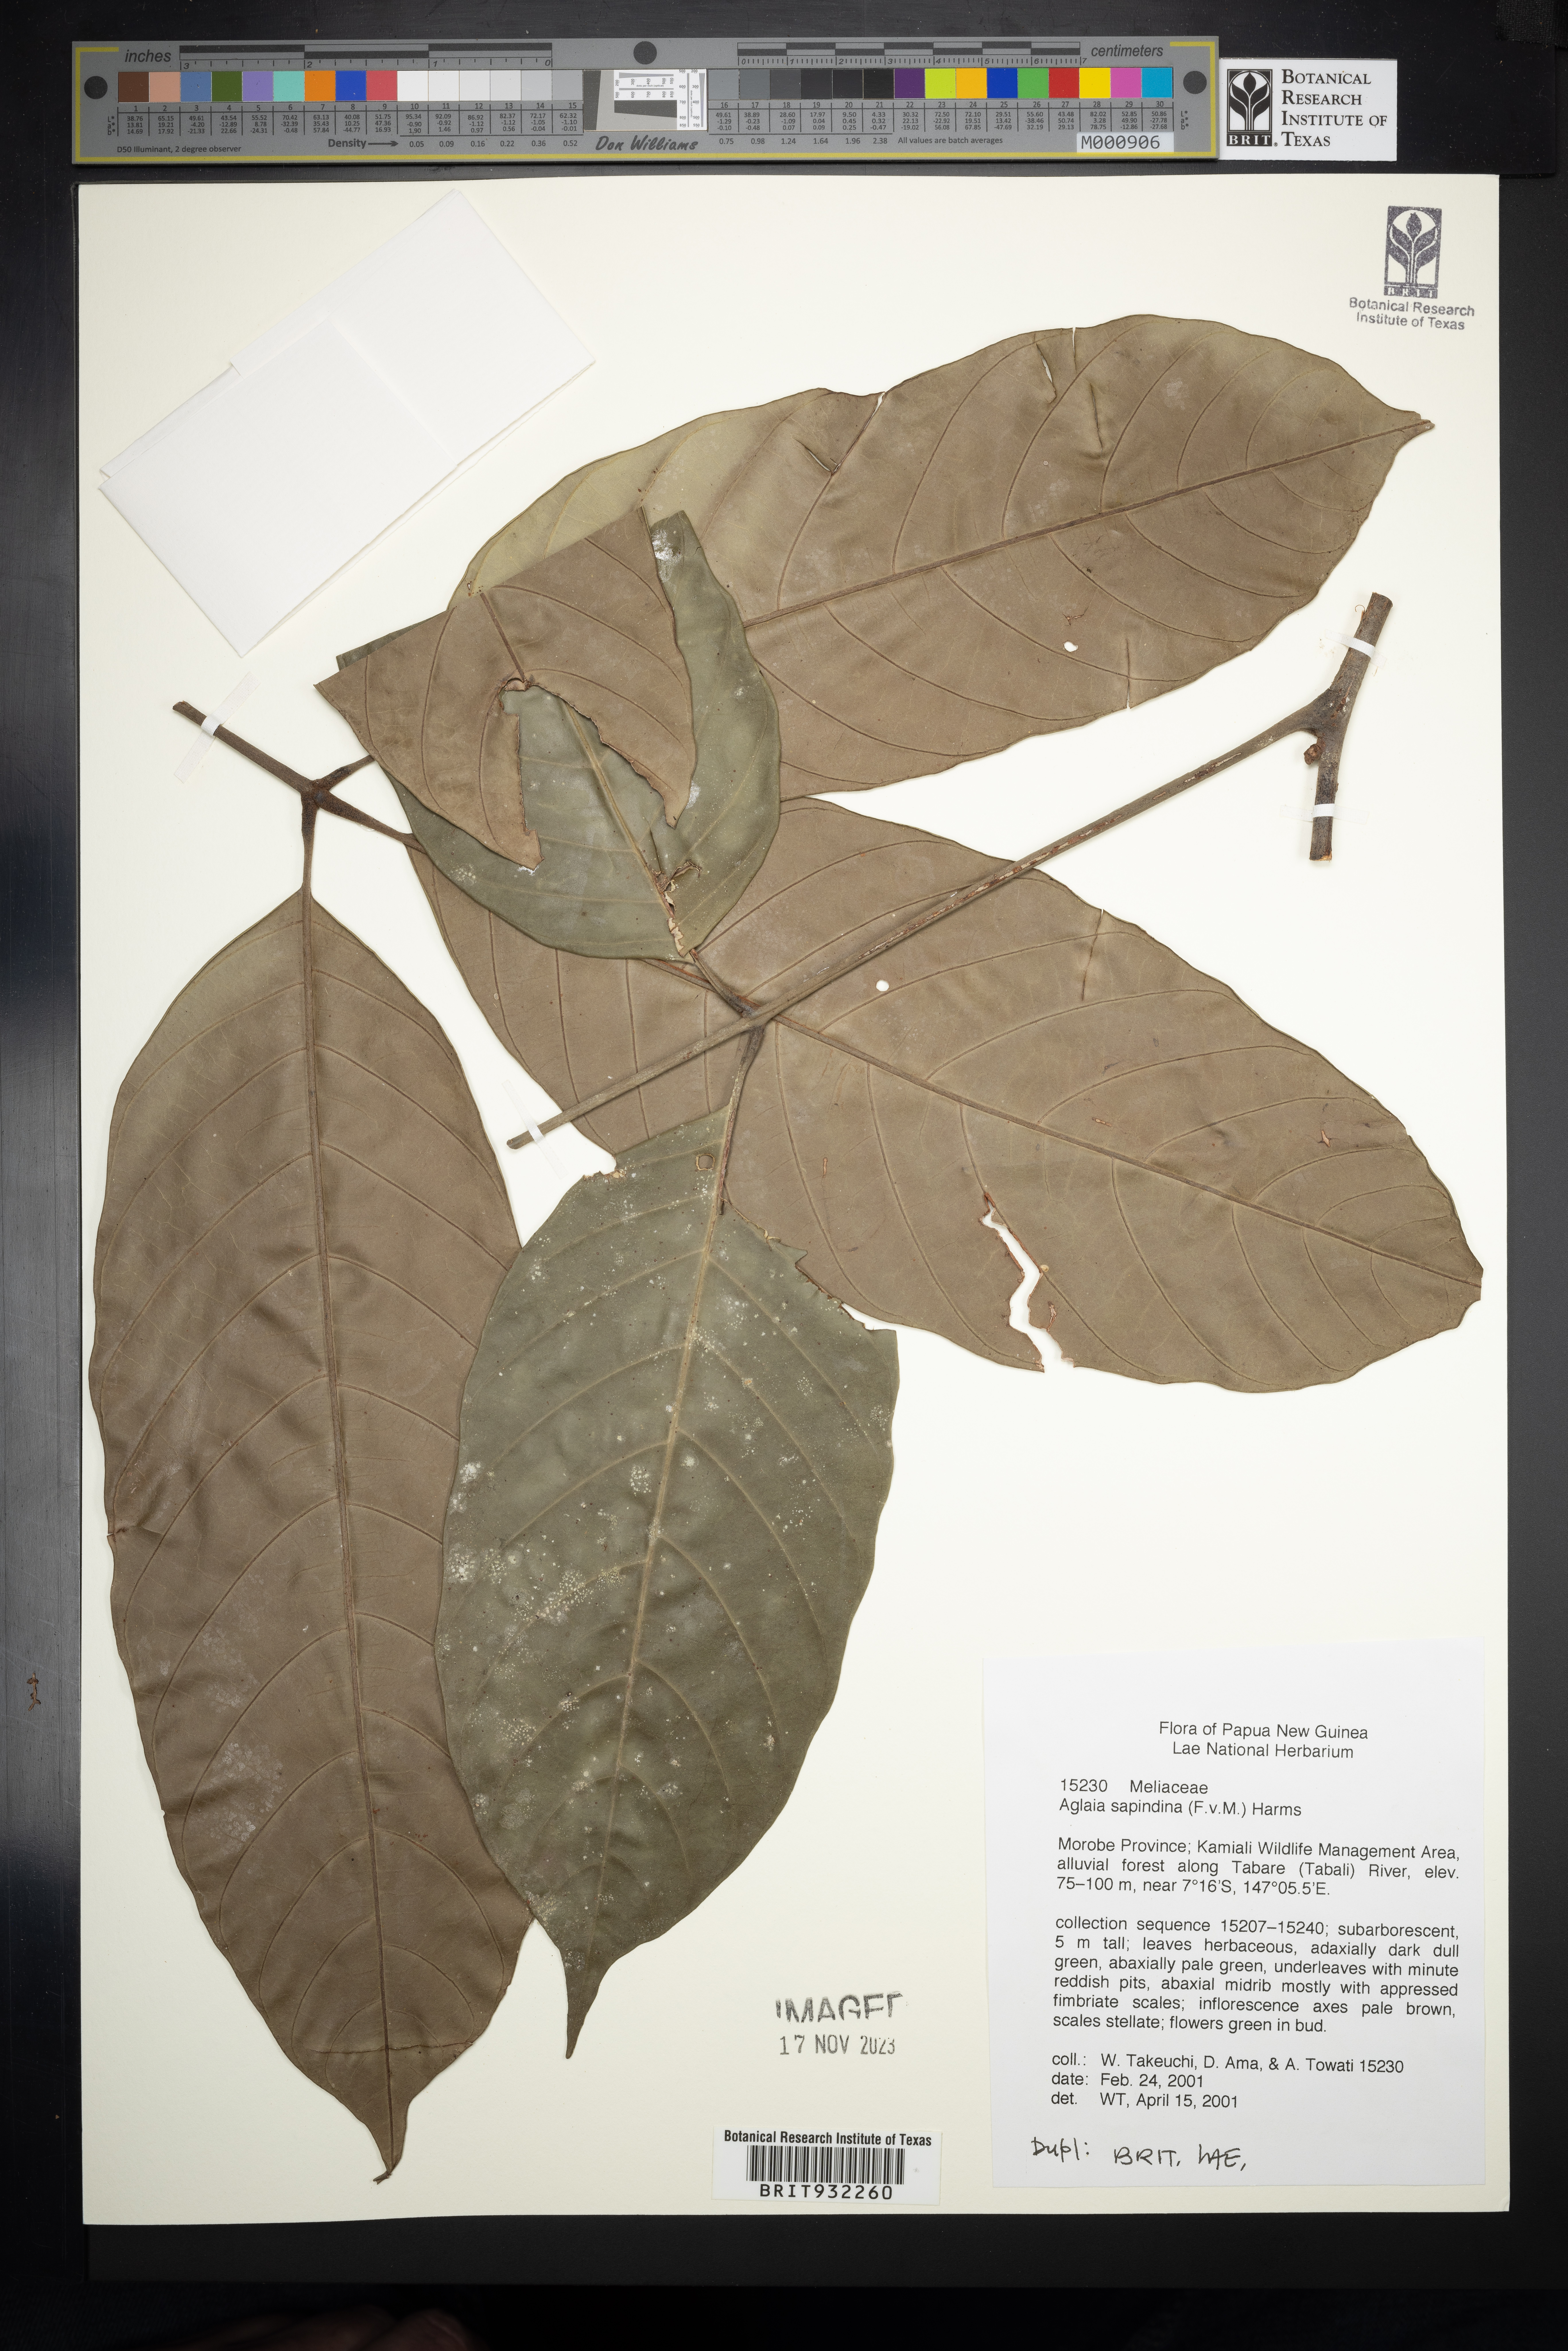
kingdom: Plantae
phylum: Tracheophyta
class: Magnoliopsida
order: Sapindales
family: Meliaceae
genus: Aglaia
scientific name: Aglaia
